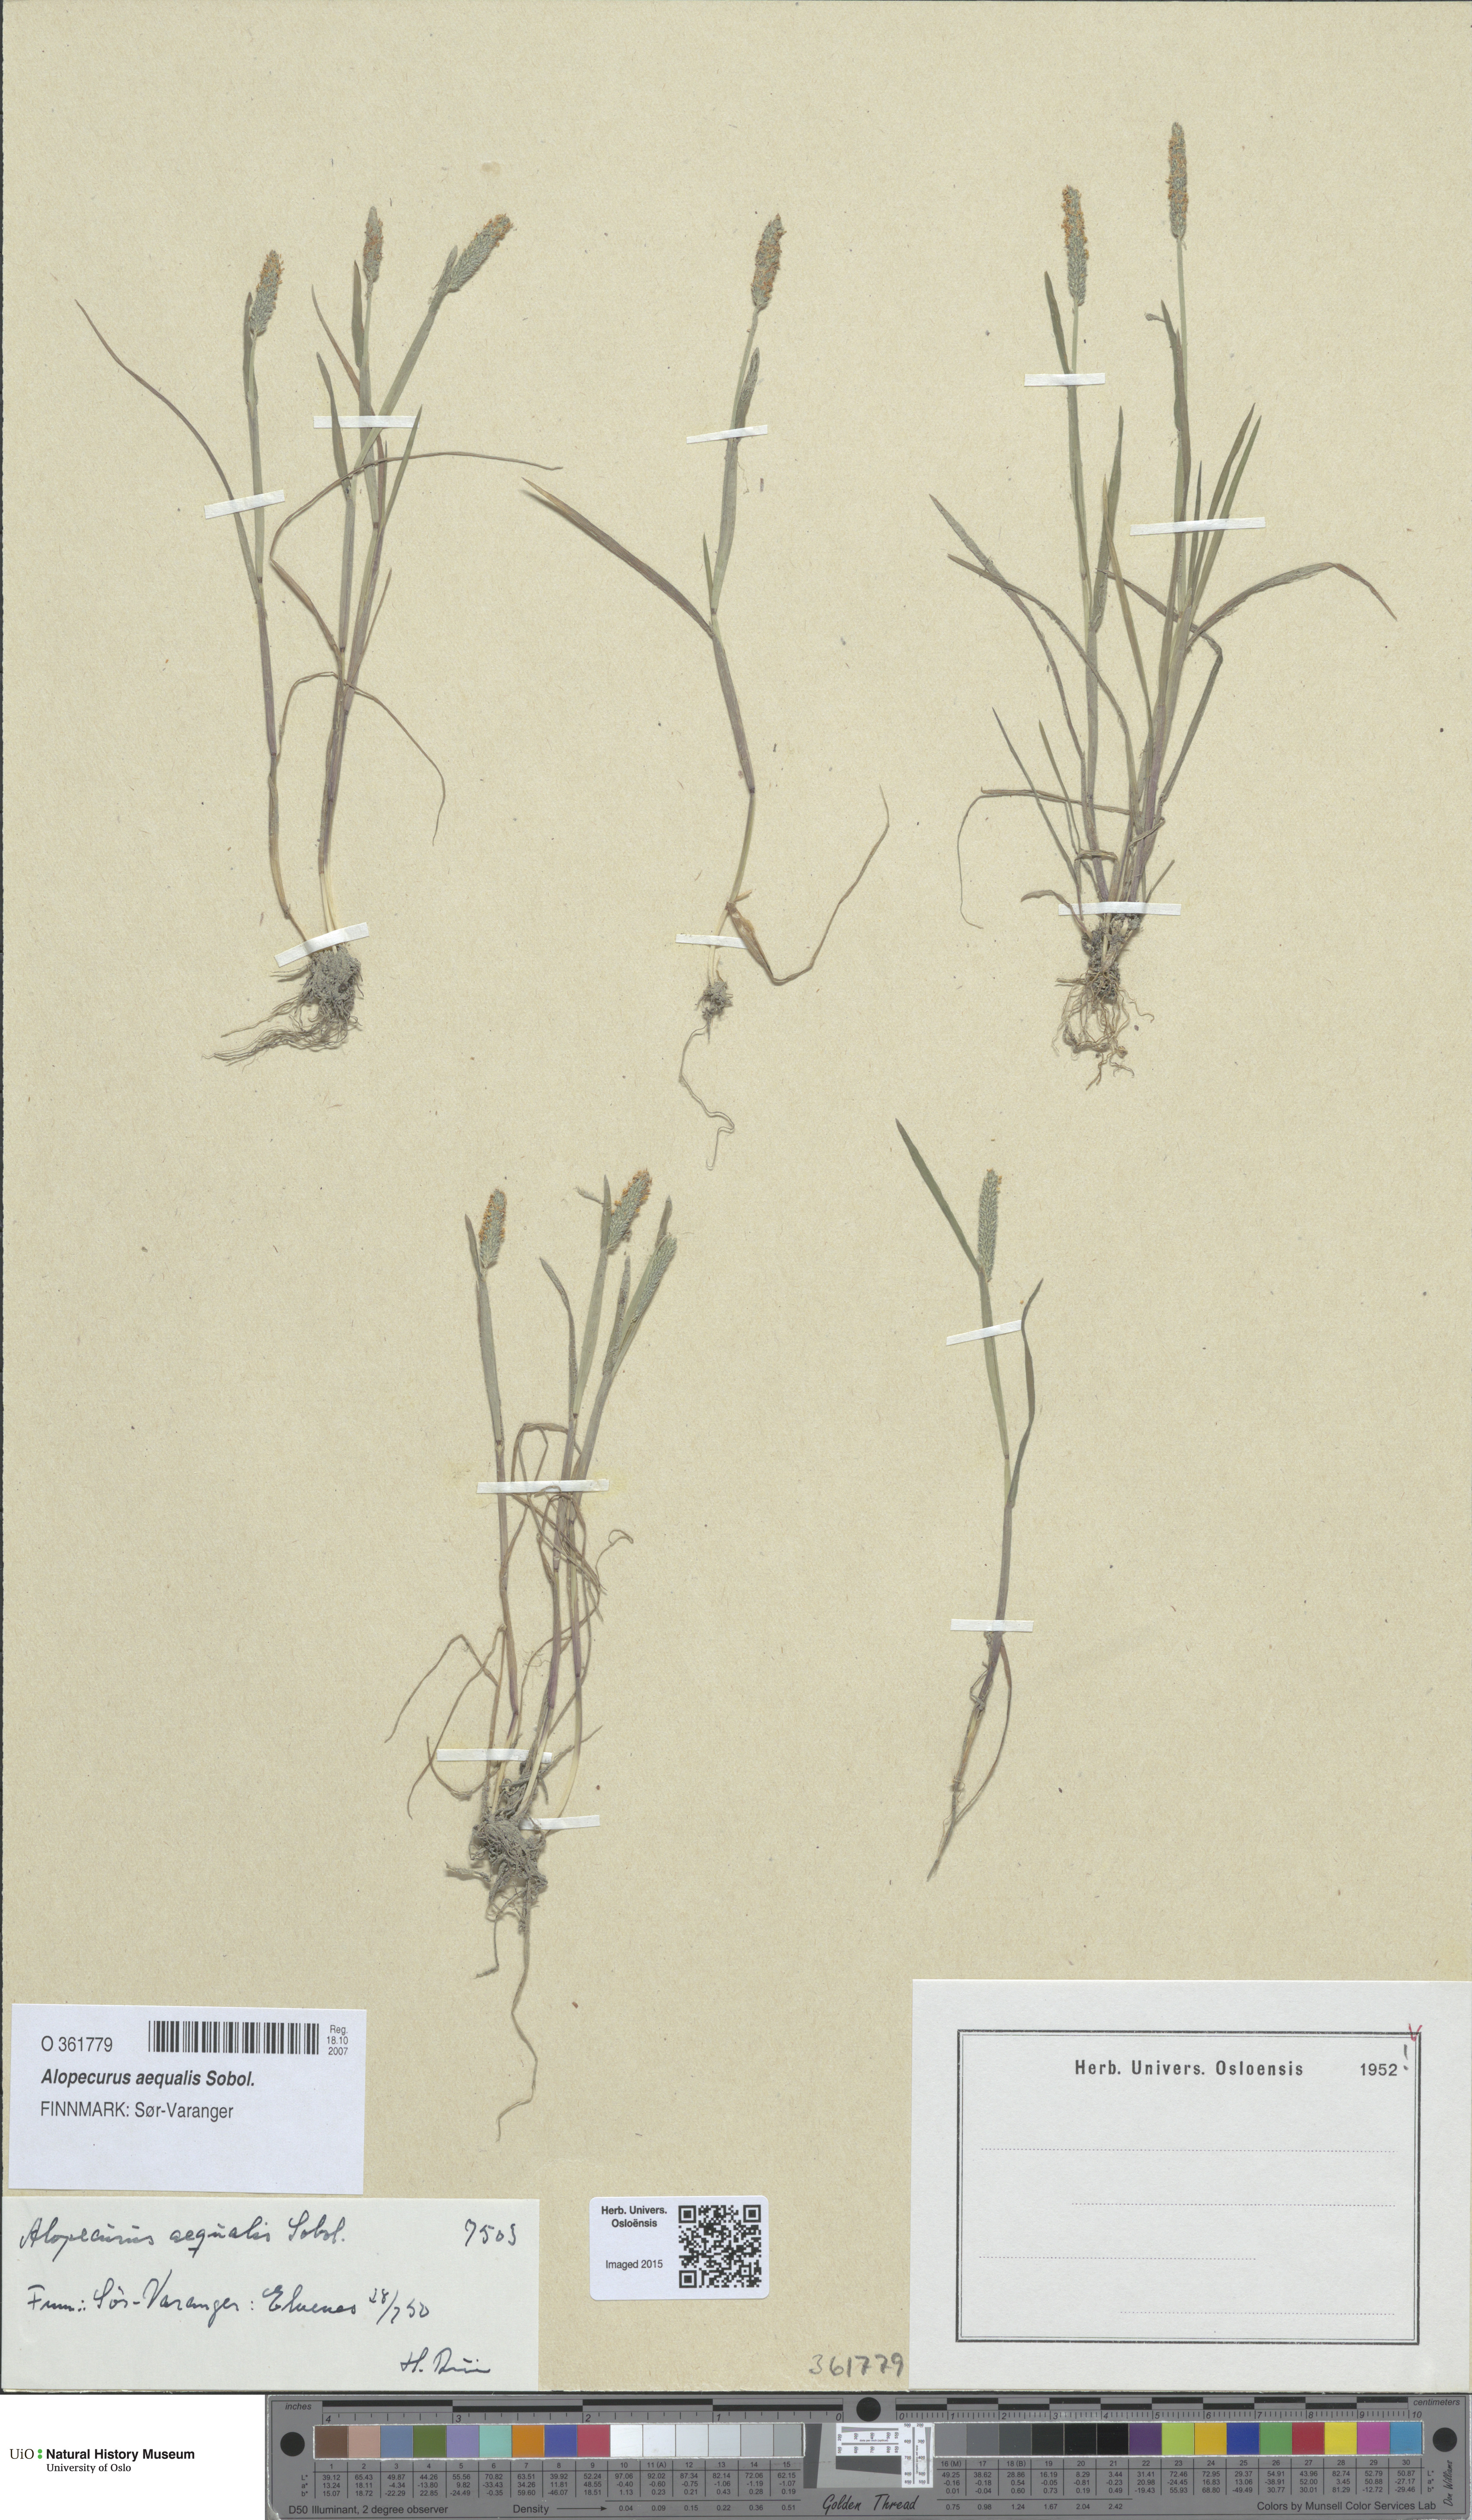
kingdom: Plantae
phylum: Tracheophyta
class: Liliopsida
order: Poales
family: Poaceae
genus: Alopecurus
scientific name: Alopecurus aequalis
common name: Orange foxtail
